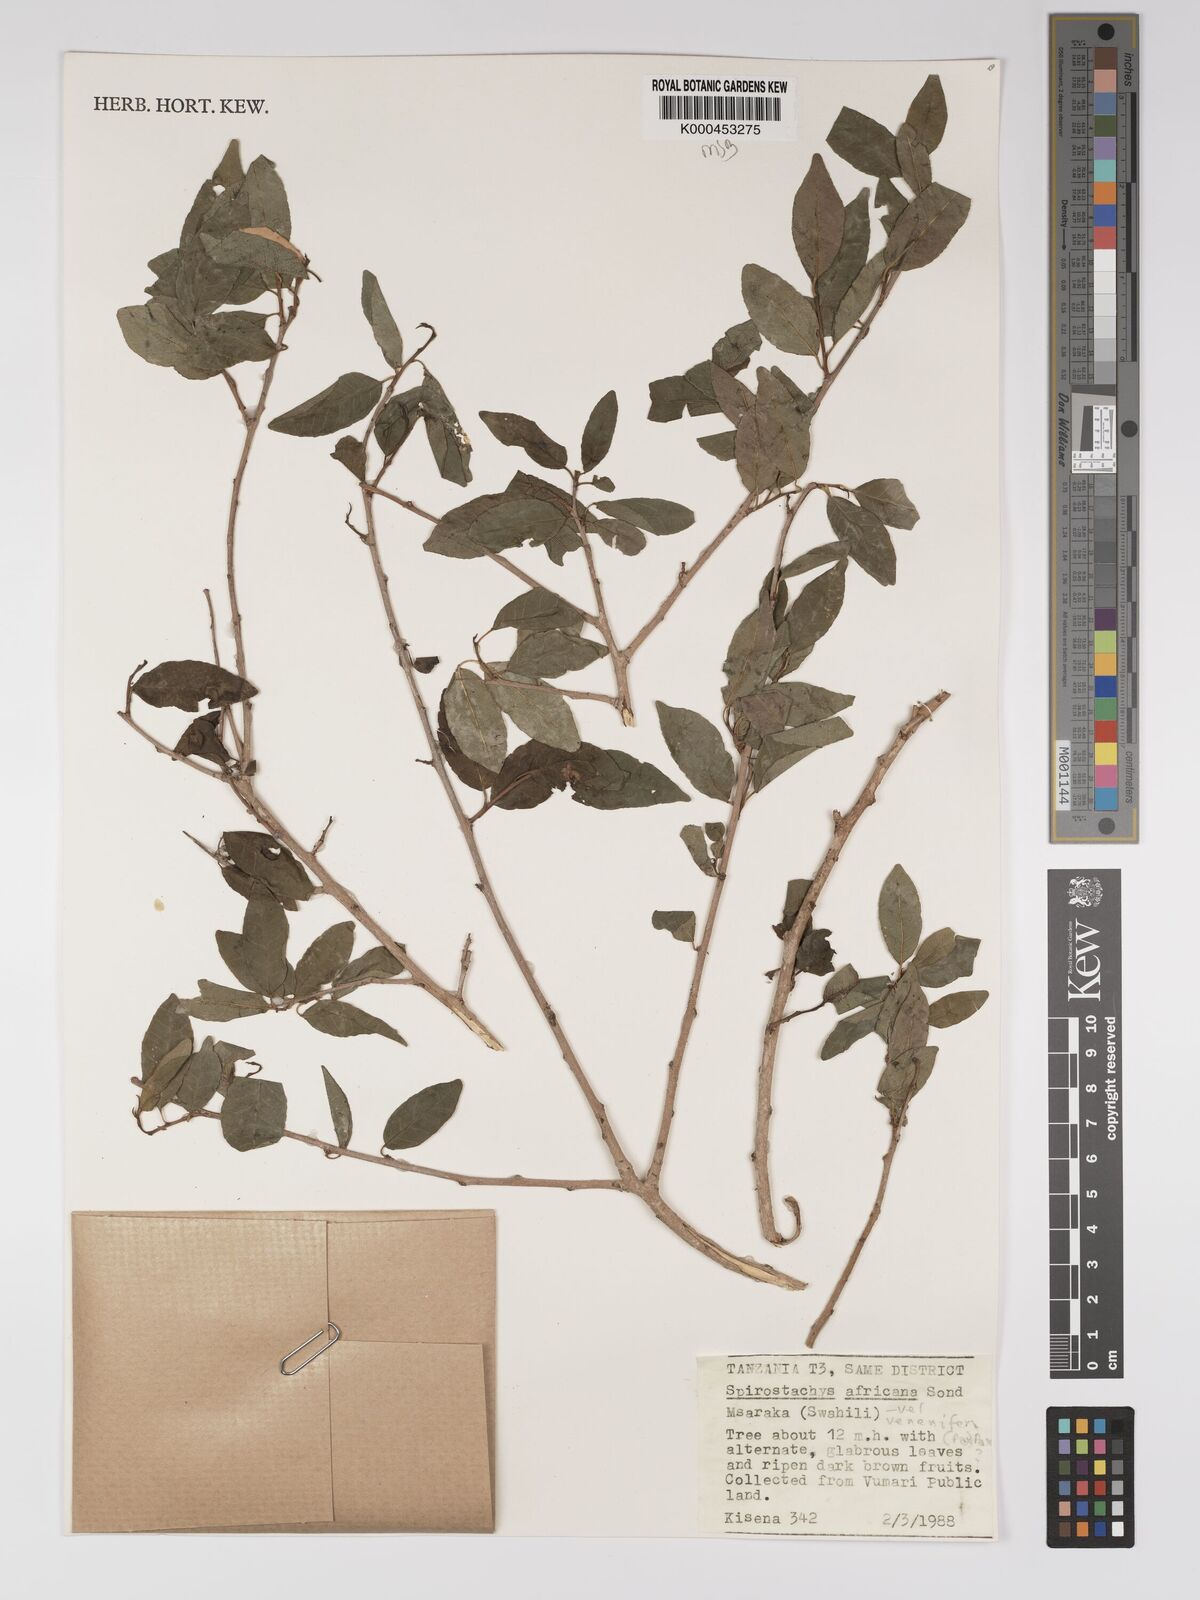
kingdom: Plantae
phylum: Tracheophyta
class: Magnoliopsida
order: Malpighiales
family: Euphorbiaceae
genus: Spirostachys
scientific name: Spirostachys africana
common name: Tamboti
